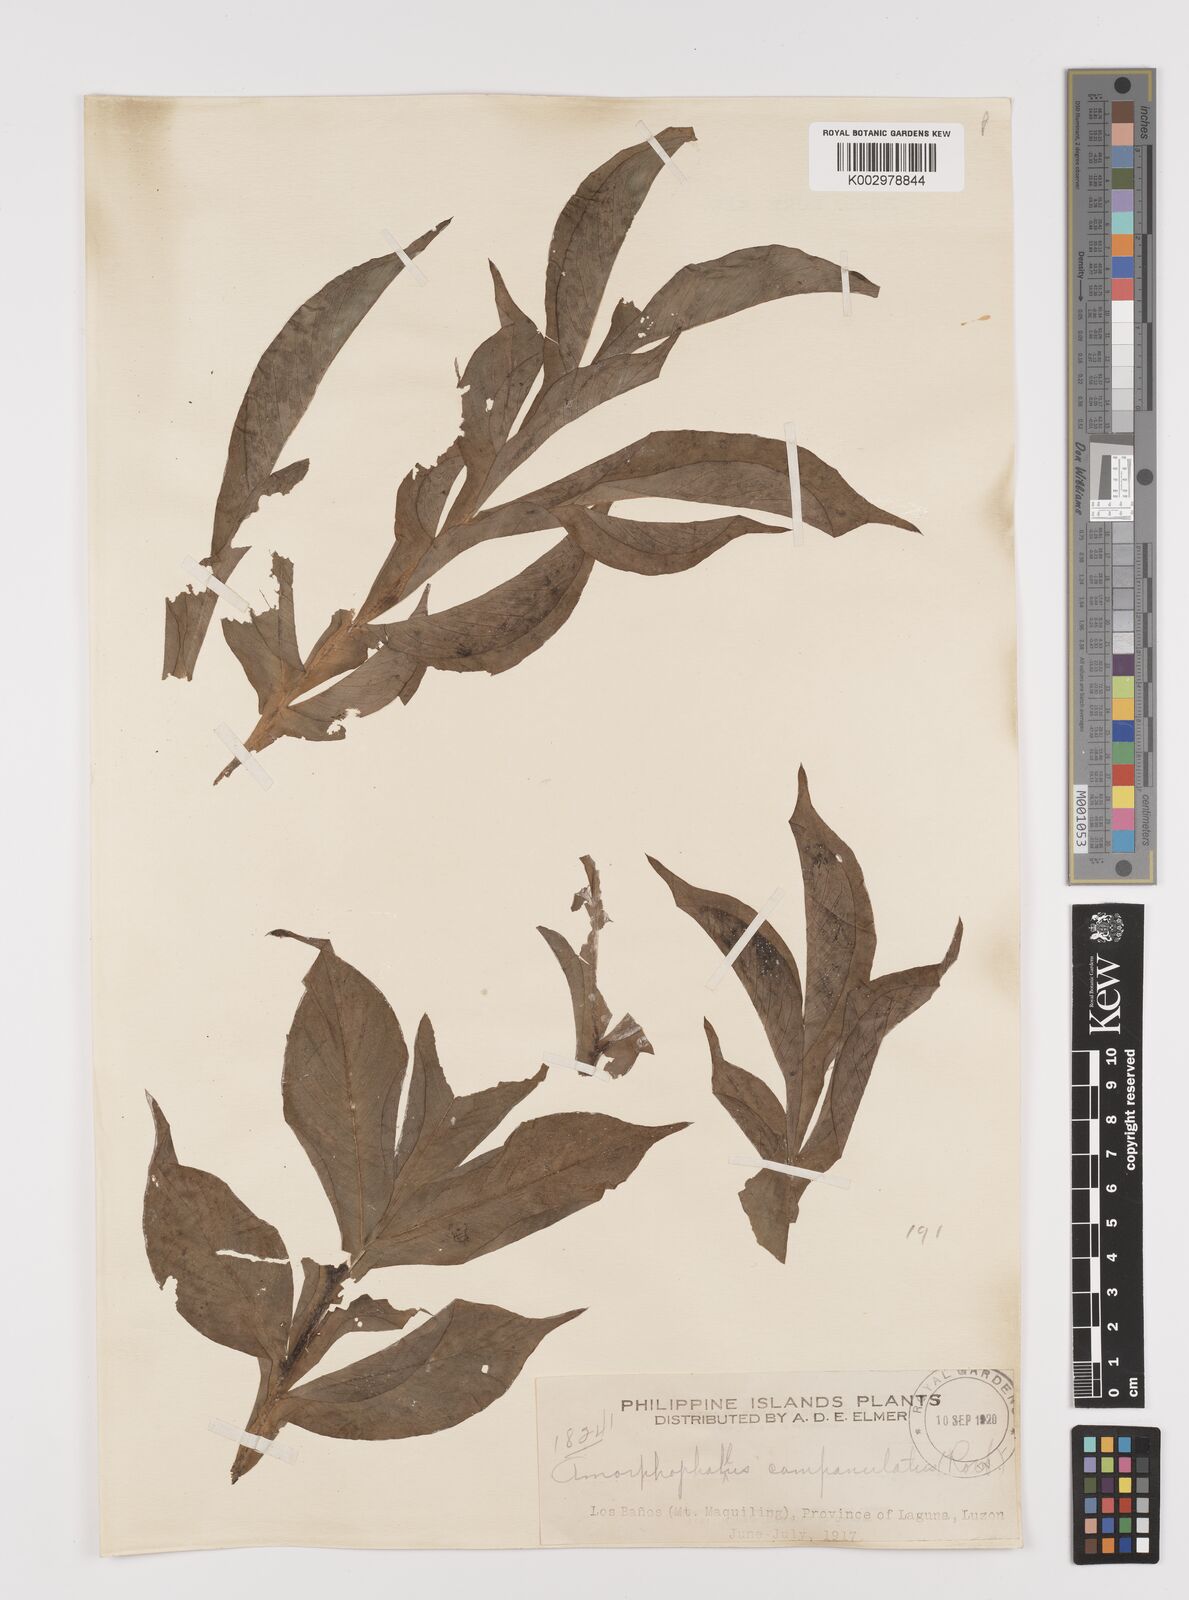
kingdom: Plantae
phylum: Tracheophyta
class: Liliopsida
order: Alismatales
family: Araceae
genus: Amorphophallus
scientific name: Amorphophallus paeoniifolius
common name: Telinga-potato
